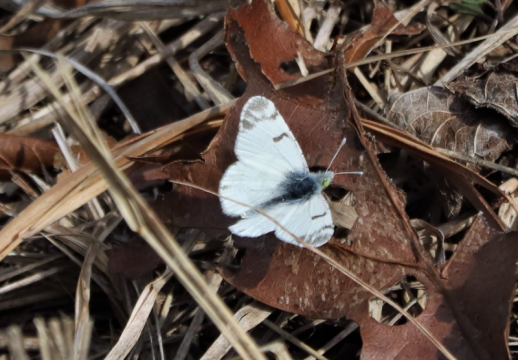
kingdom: Animalia
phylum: Arthropoda
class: Insecta
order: Lepidoptera
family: Pieridae
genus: Euchloe
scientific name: Euchloe olympia
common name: Olympia Marble
